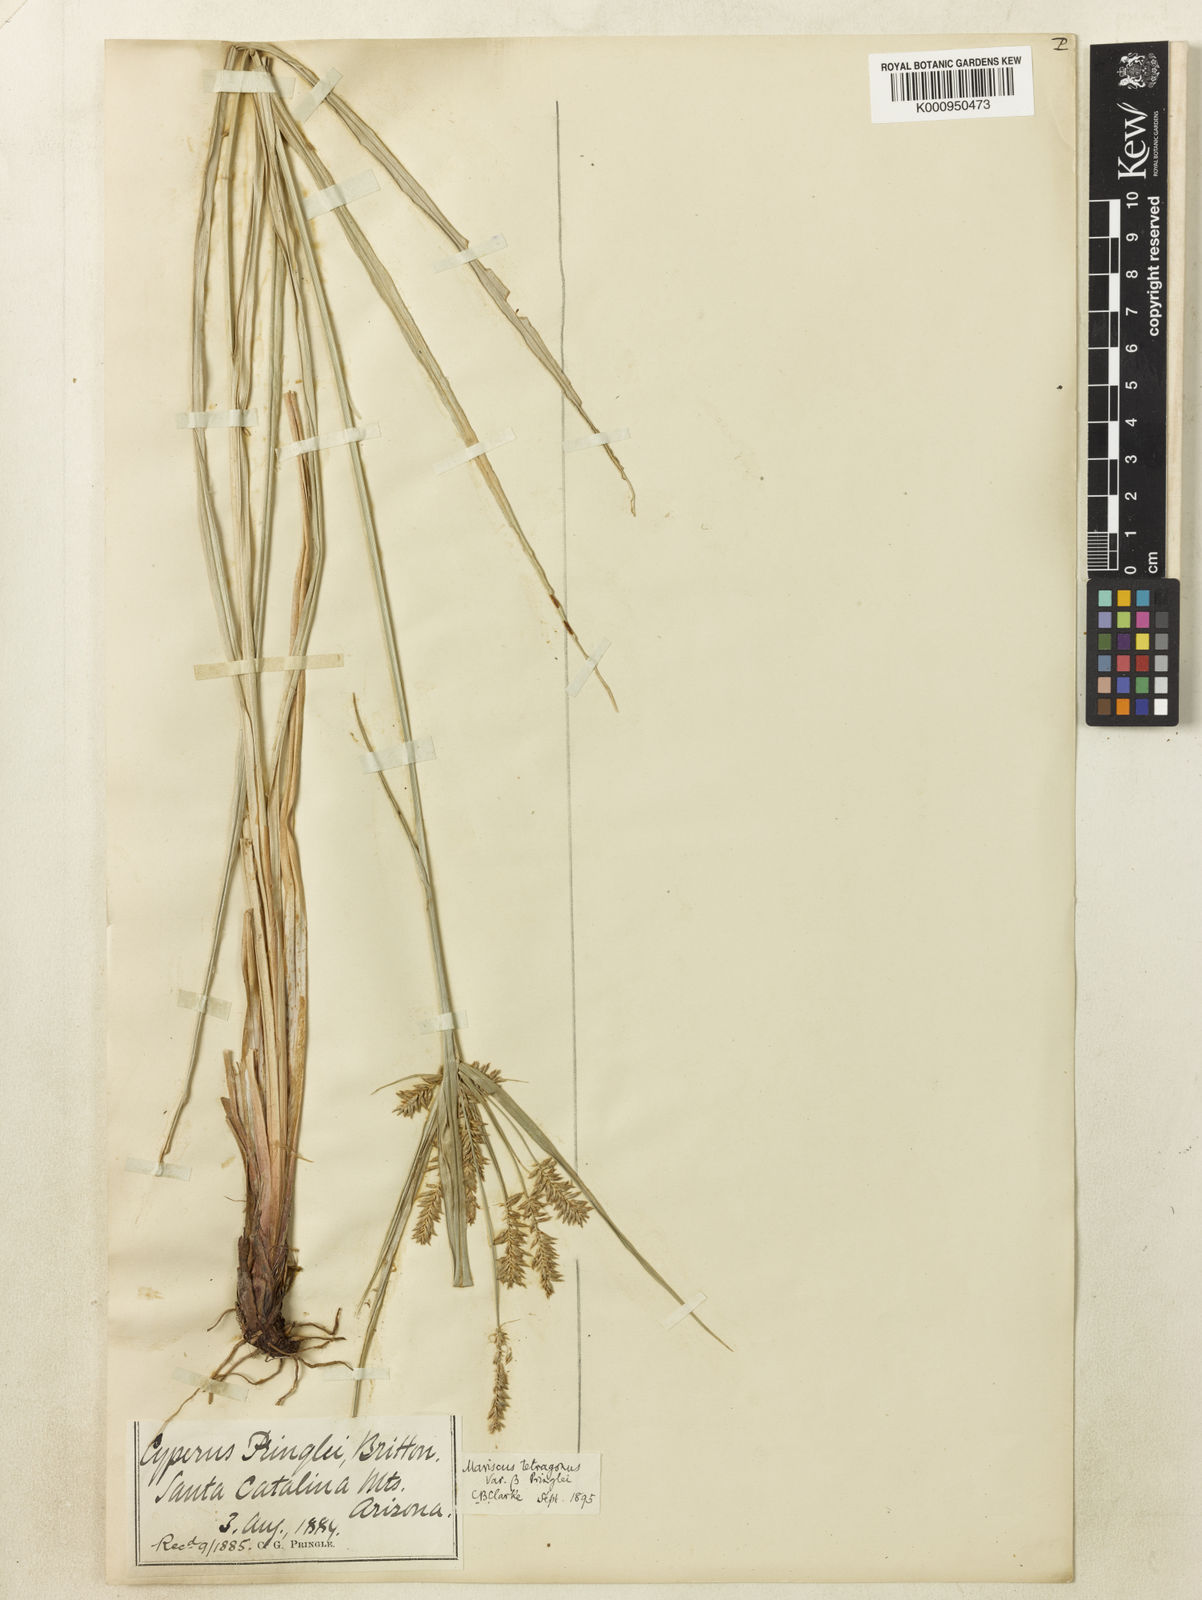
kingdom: Plantae
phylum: Tracheophyta
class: Liliopsida
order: Poales
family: Cyperaceae
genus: Cyperus
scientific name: Cyperus tetragonus
